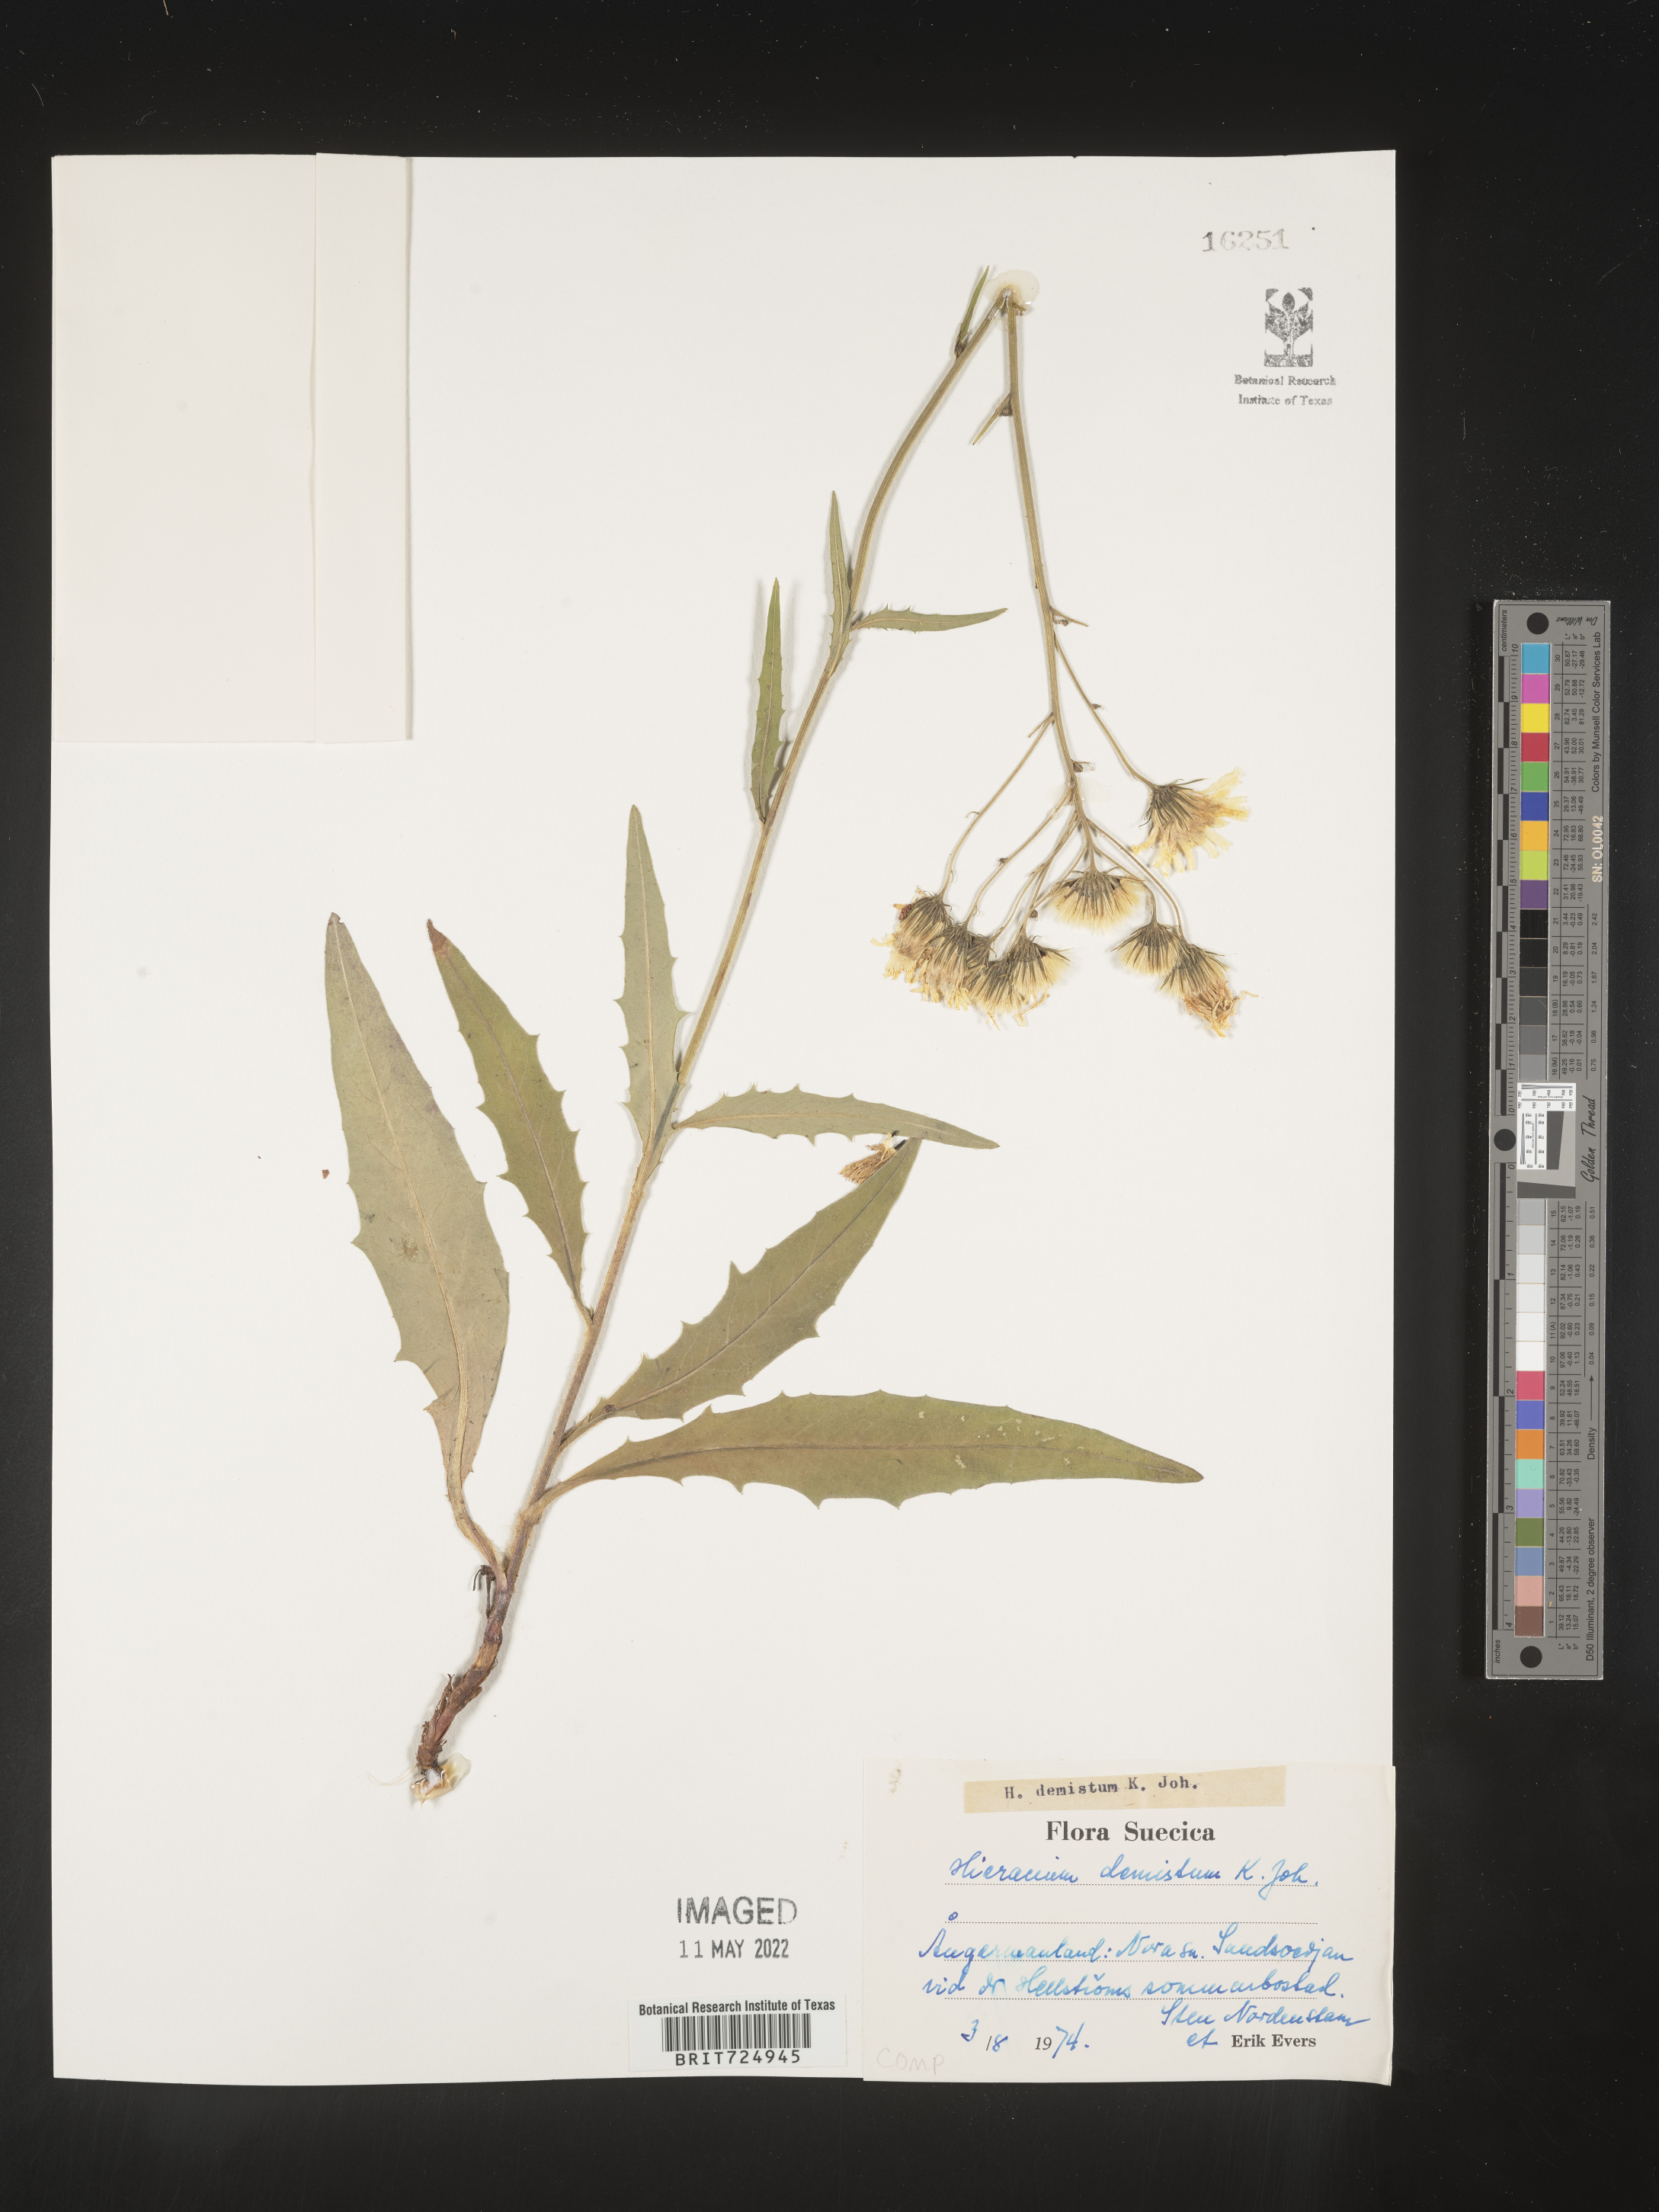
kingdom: Plantae
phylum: Tracheophyta
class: Magnoliopsida
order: Asterales
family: Asteraceae
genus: Hieracium
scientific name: Hieracium
